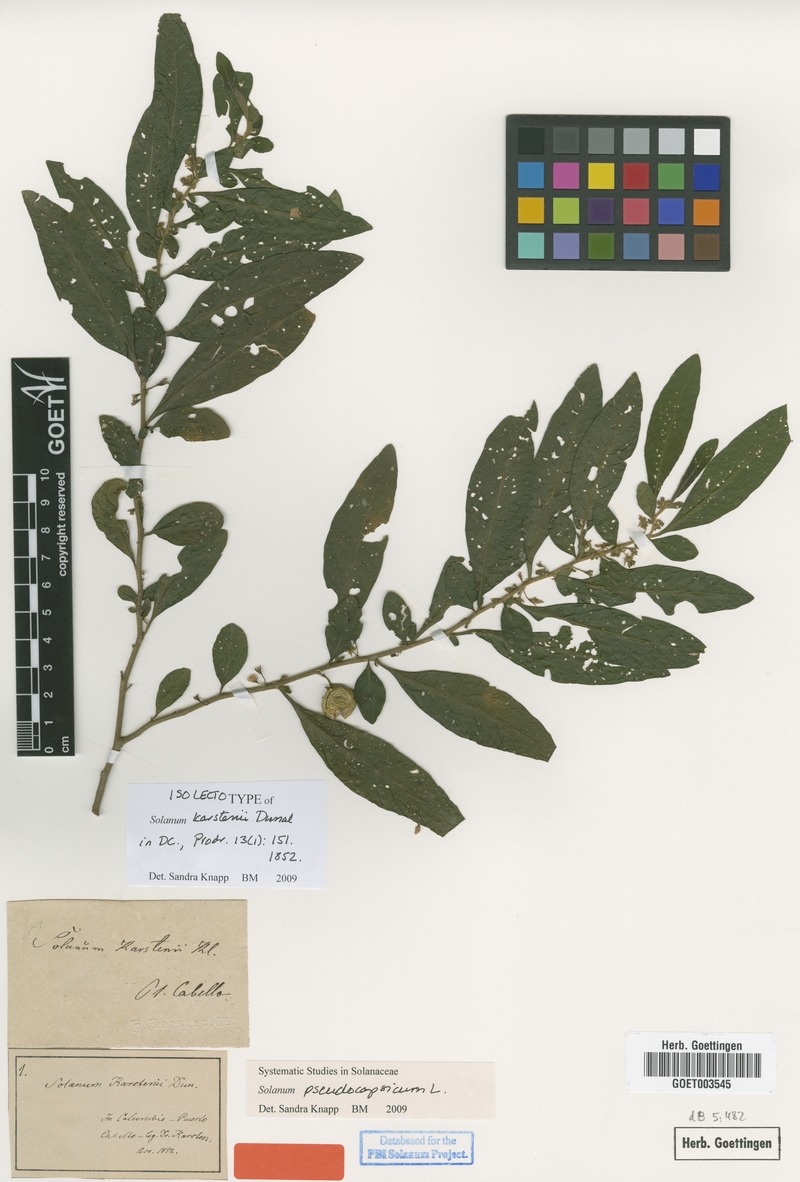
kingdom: Plantae
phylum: Tracheophyta
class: Magnoliopsida
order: Solanales
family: Solanaceae
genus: Solanum
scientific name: Solanum pseudocapsicum
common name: Jerusalem cherry
